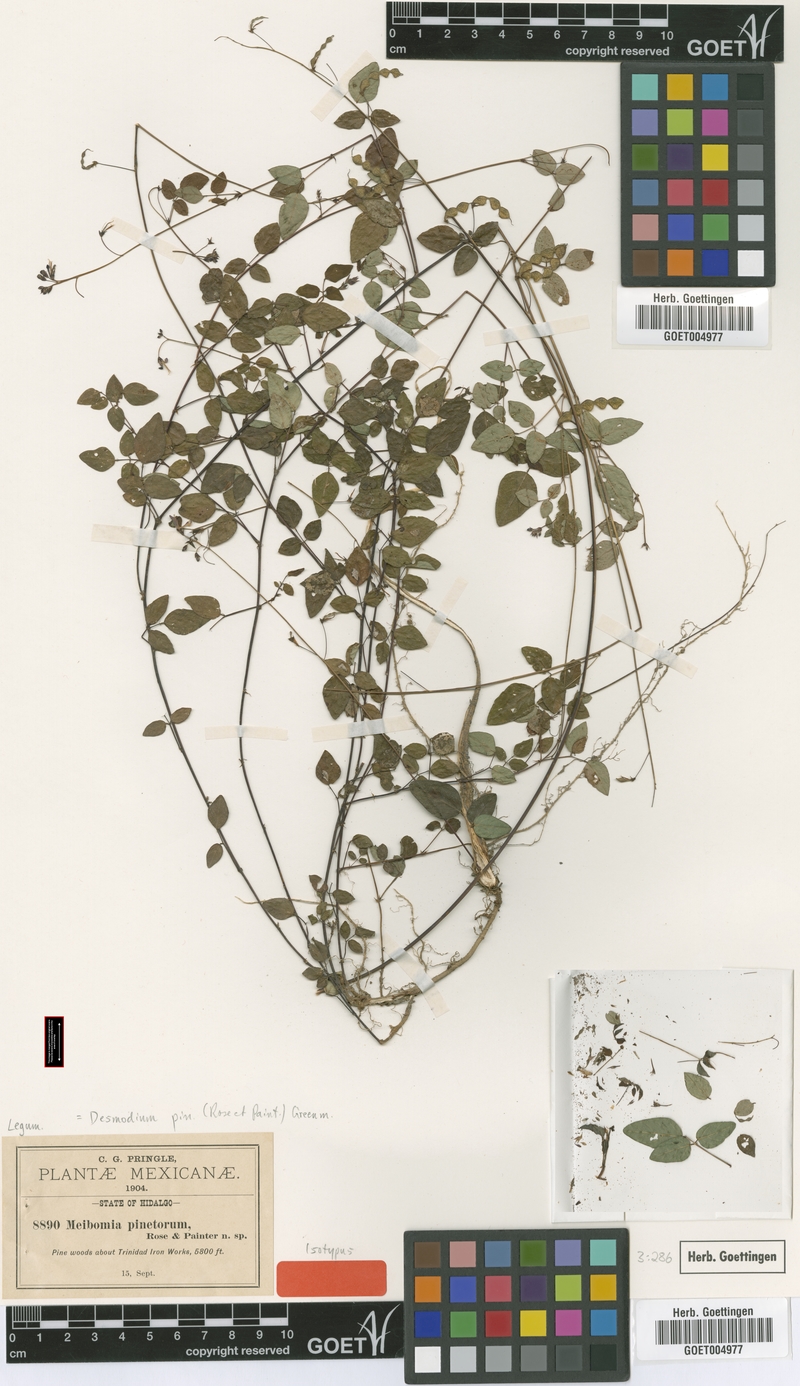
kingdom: Plantae
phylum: Tracheophyta
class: Magnoliopsida
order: Fabales
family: Fabaceae
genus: Desmodium
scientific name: Desmodium leptoclados
